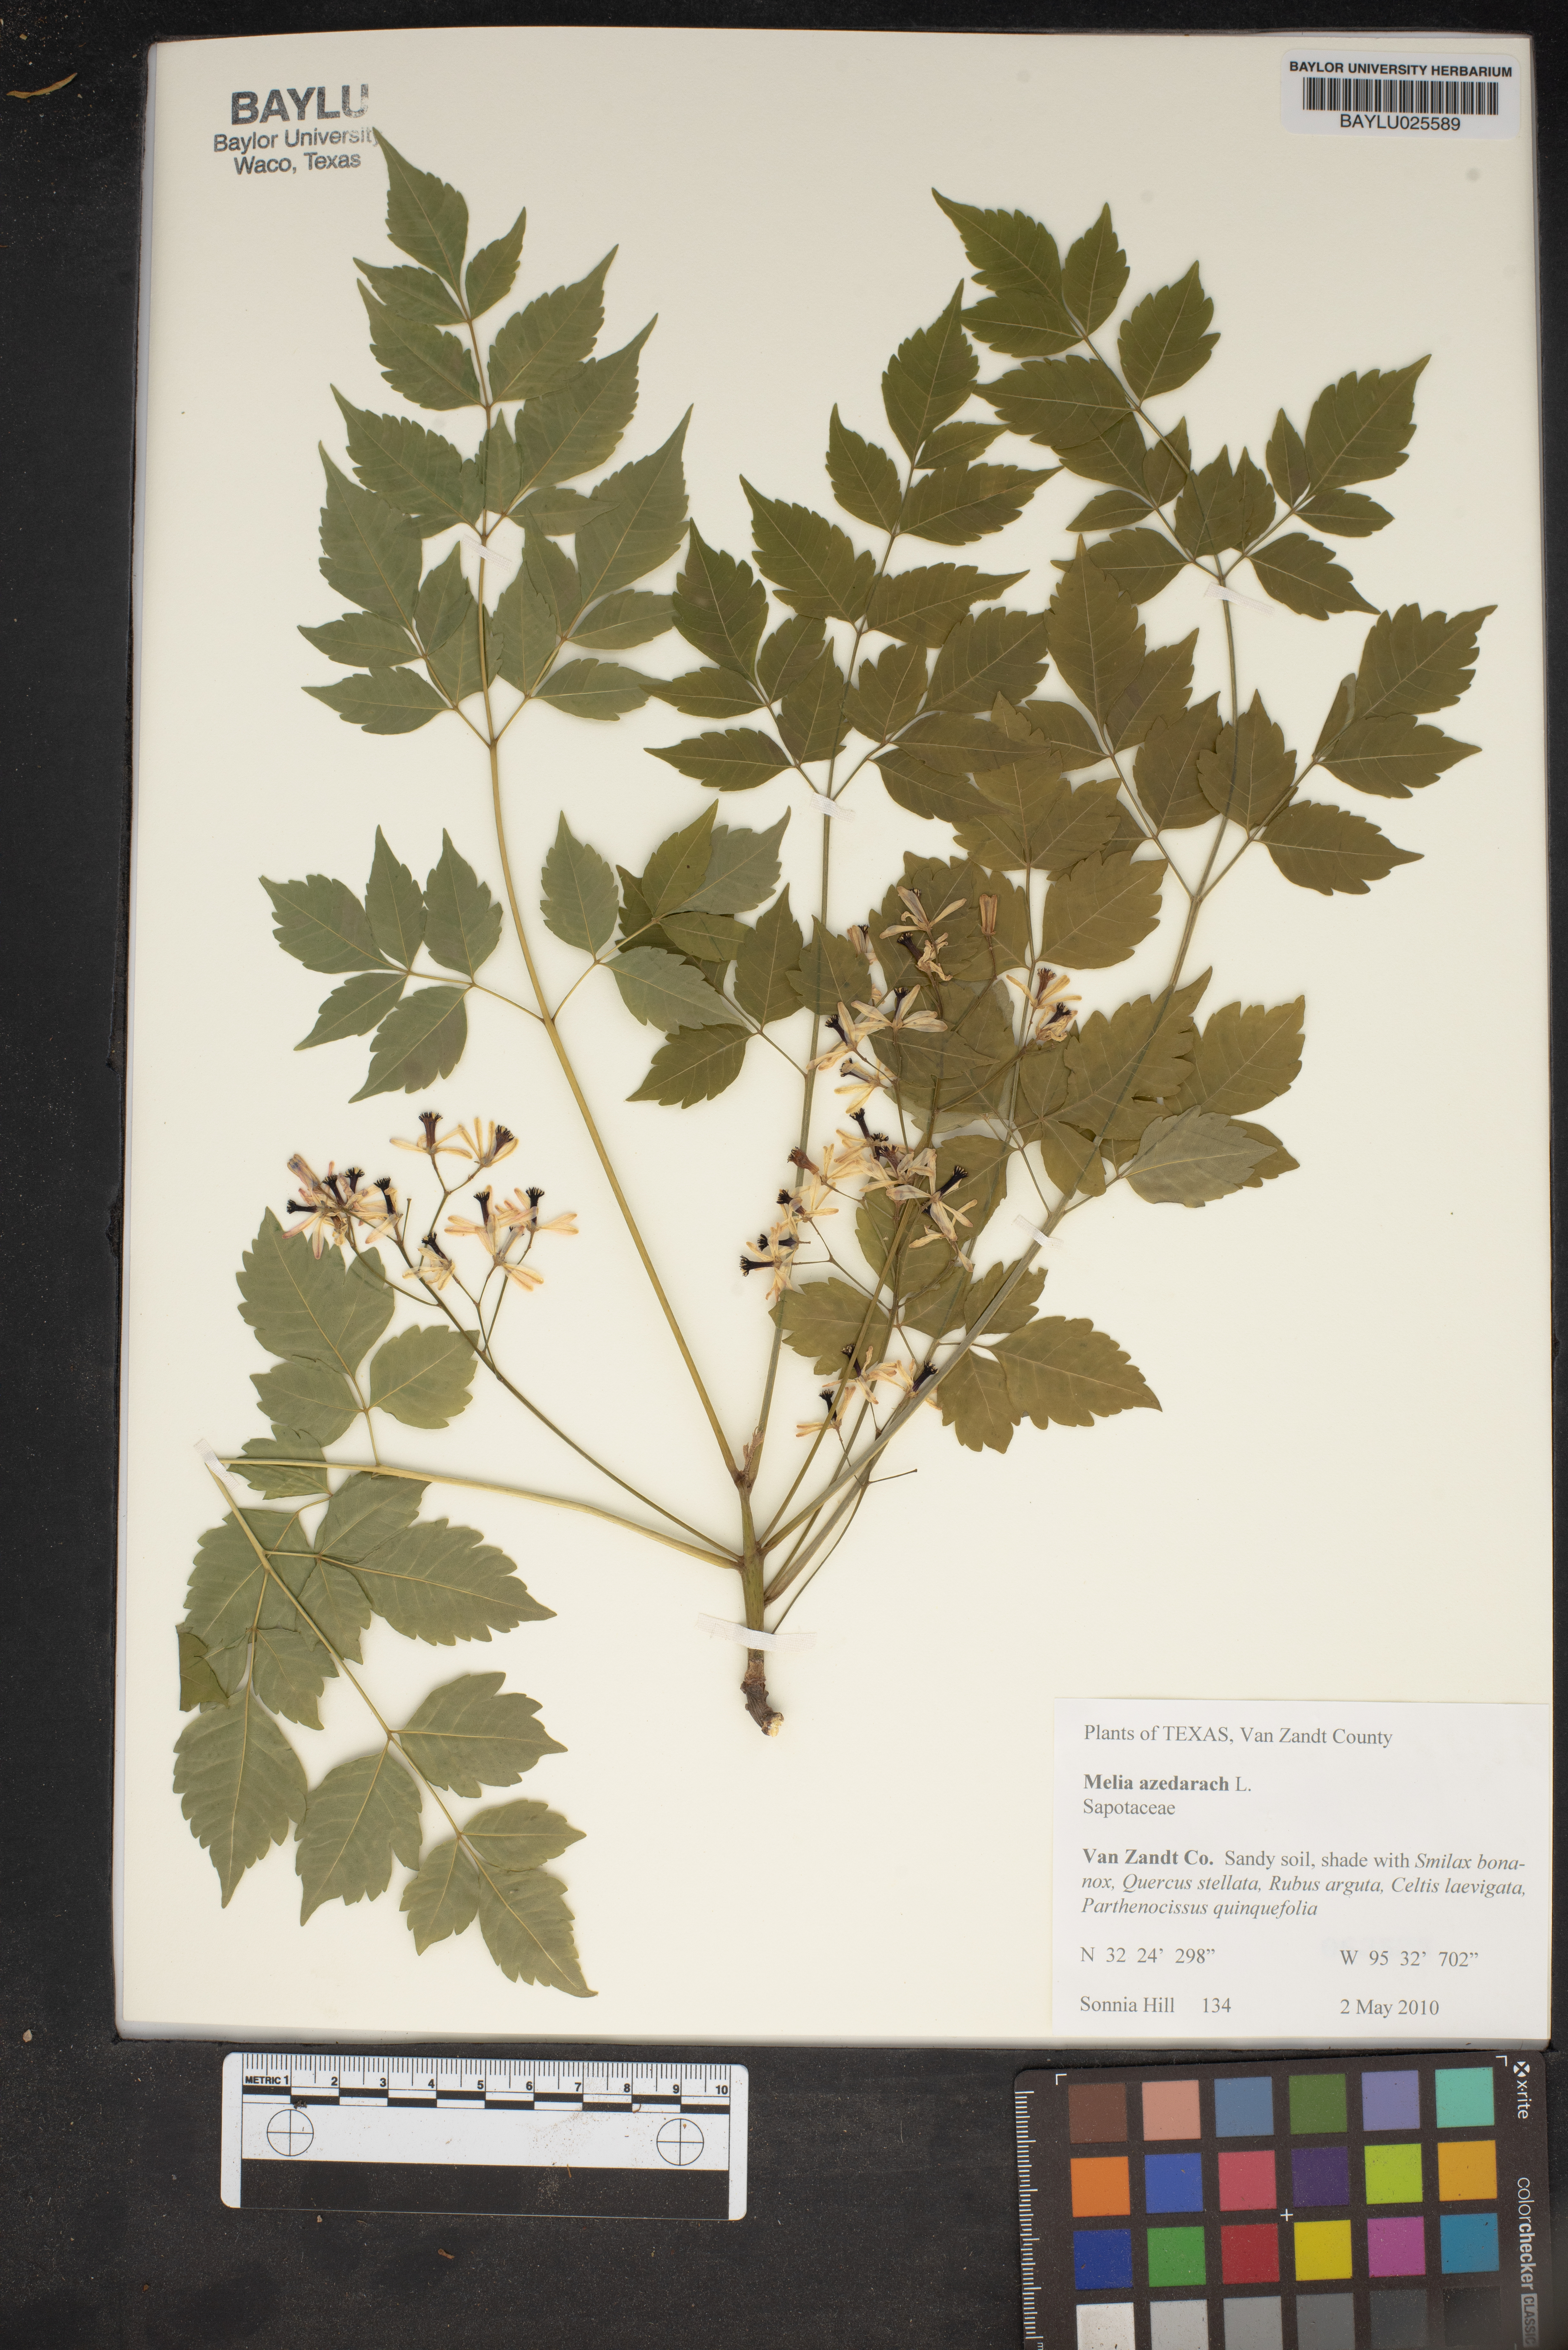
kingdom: Plantae
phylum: Tracheophyta
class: Magnoliopsida
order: Sapindales
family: Meliaceae
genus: Melia
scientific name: Melia azedarach
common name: Chinaberrytree
